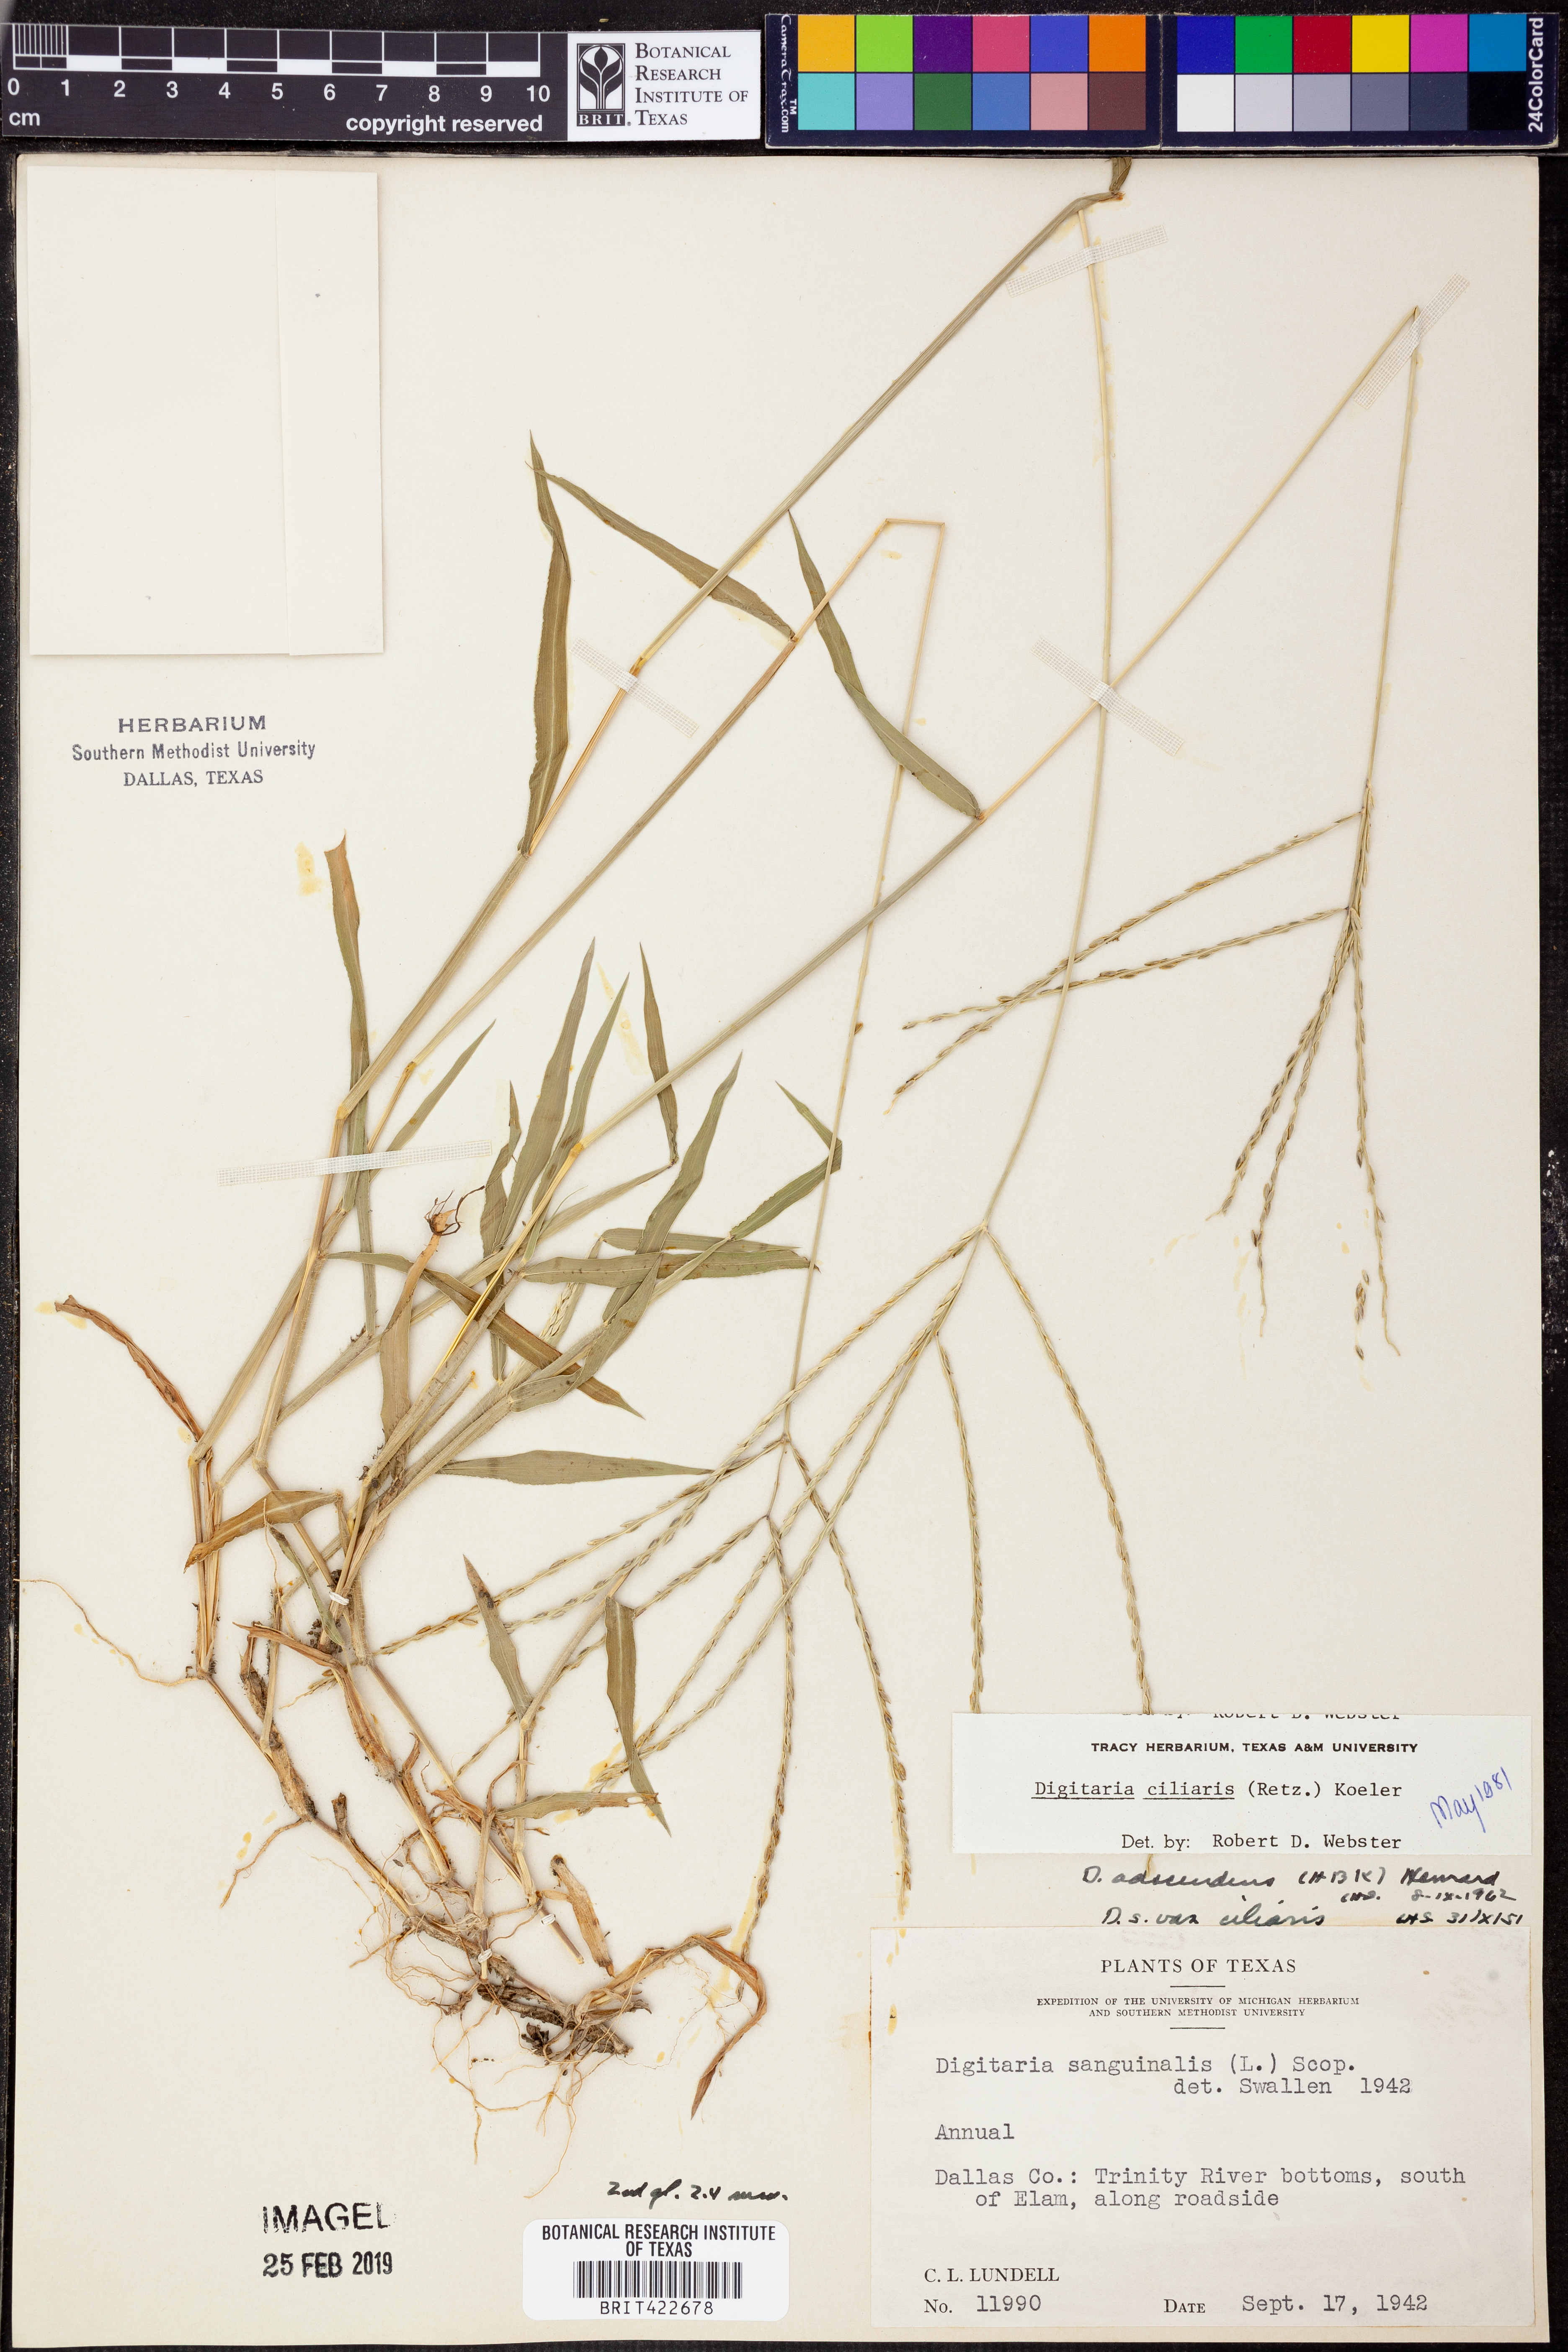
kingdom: Plantae
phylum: Tracheophyta
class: Liliopsida
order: Poales
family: Poaceae
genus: Digitaria
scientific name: Digitaria ciliaris
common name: Tropical finger-grass
